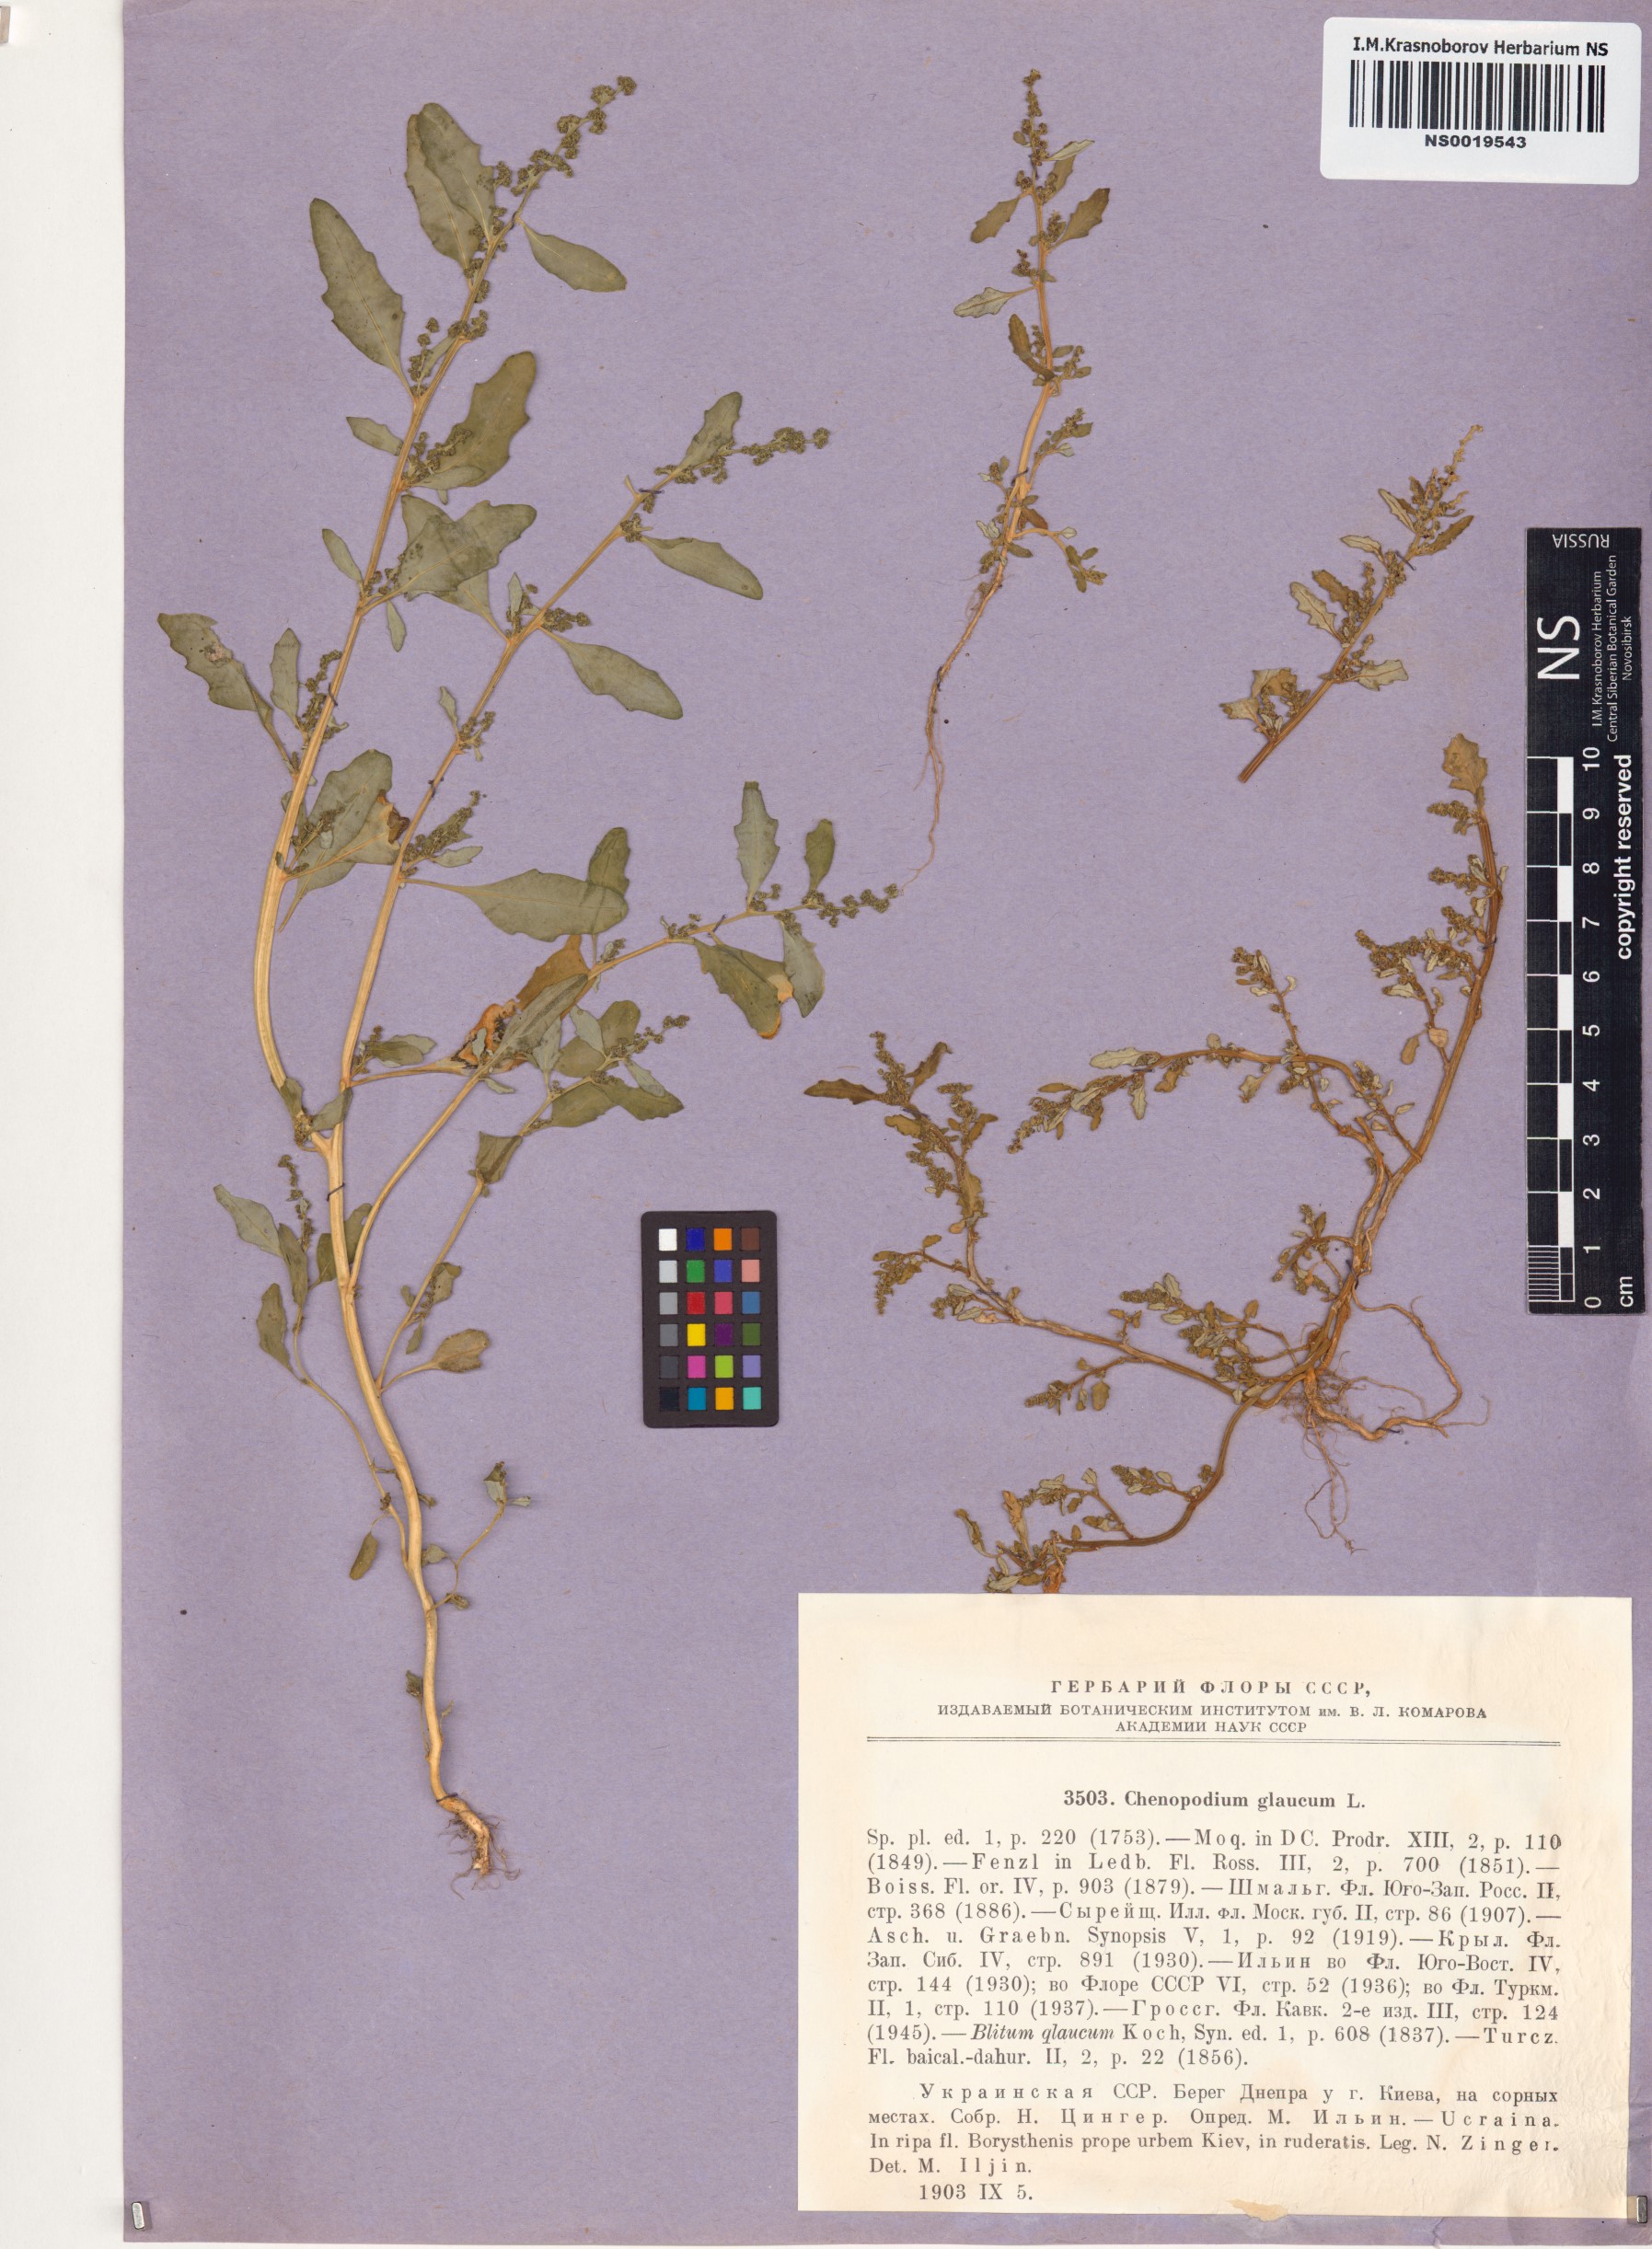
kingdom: Plantae
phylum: Tracheophyta
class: Magnoliopsida
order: Caryophyllales
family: Amaranthaceae
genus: Oxybasis
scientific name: Oxybasis glauca
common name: Glaucous goosefoot
